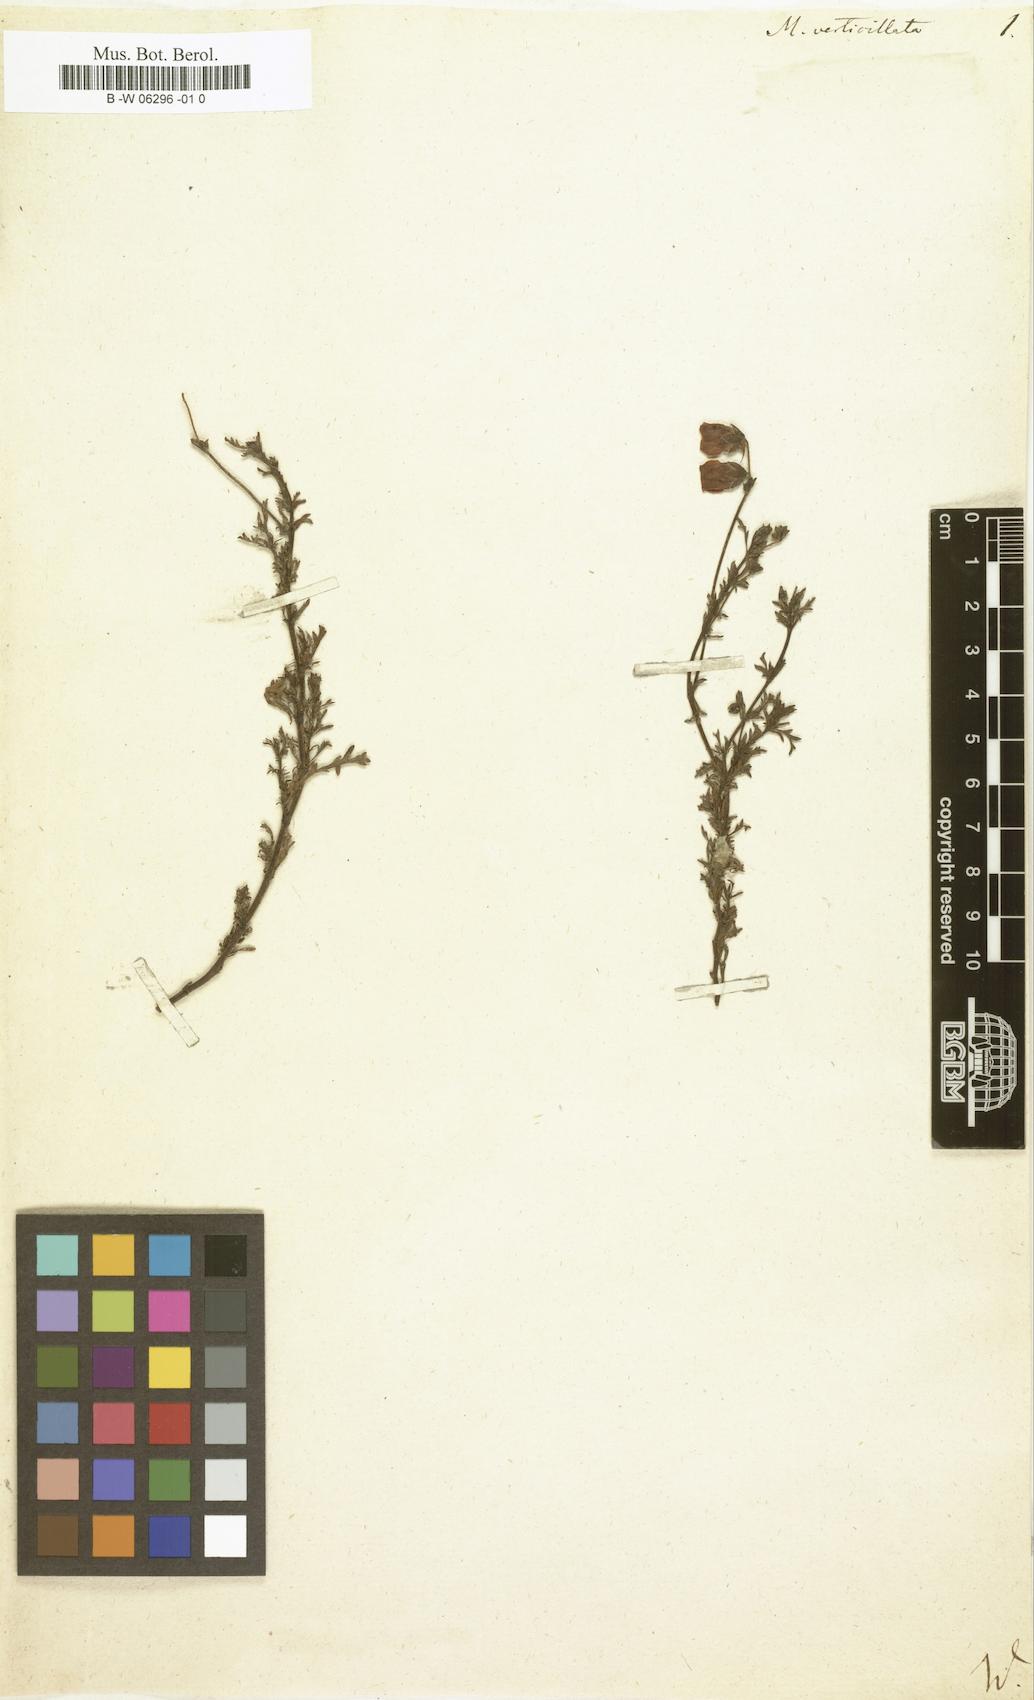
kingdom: Plantae
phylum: Tracheophyta
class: Magnoliopsida
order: Malvales
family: Malvaceae
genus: Hermannia
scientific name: Hermannia pinnata
